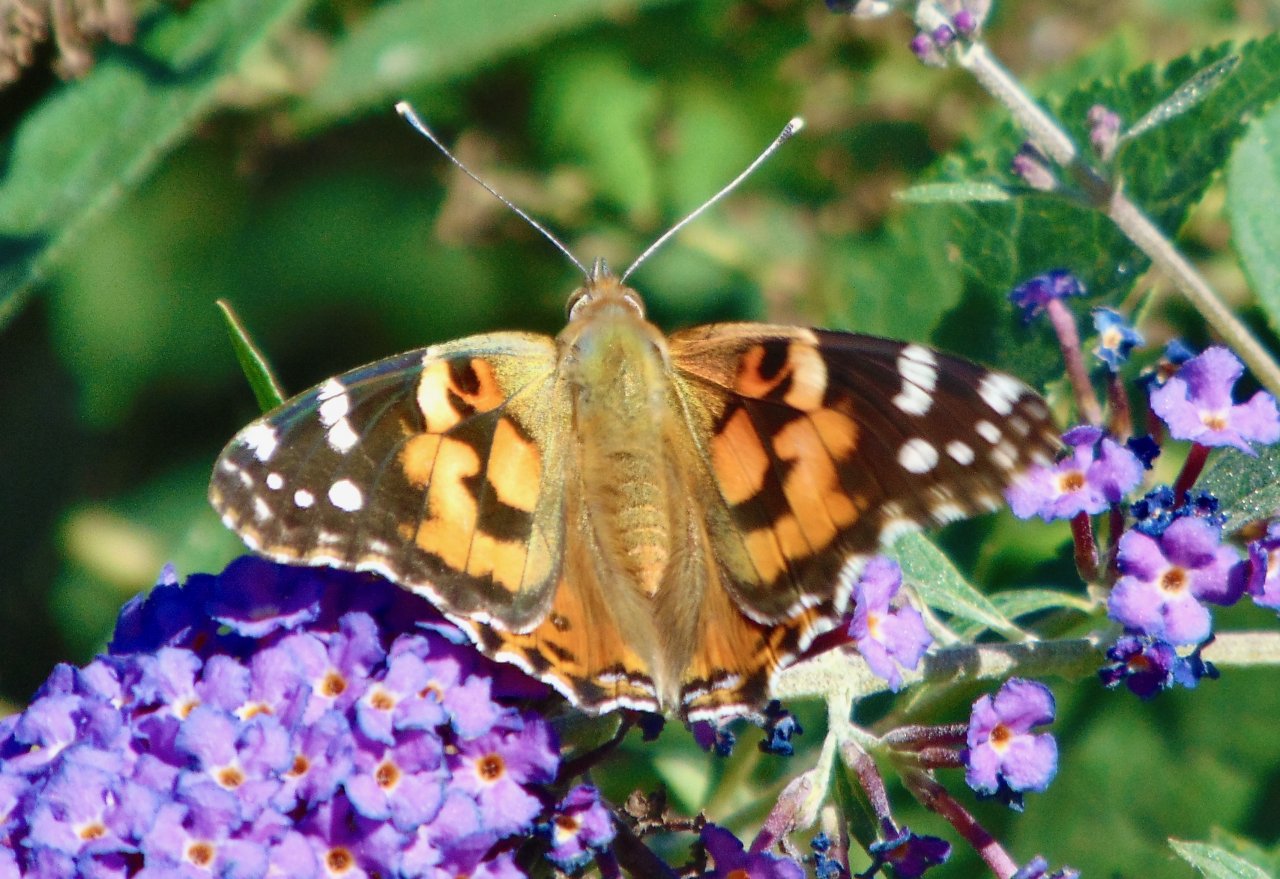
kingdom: Animalia
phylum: Arthropoda
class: Insecta
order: Lepidoptera
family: Nymphalidae
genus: Vanessa
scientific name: Vanessa cardui
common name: Painted Lady
